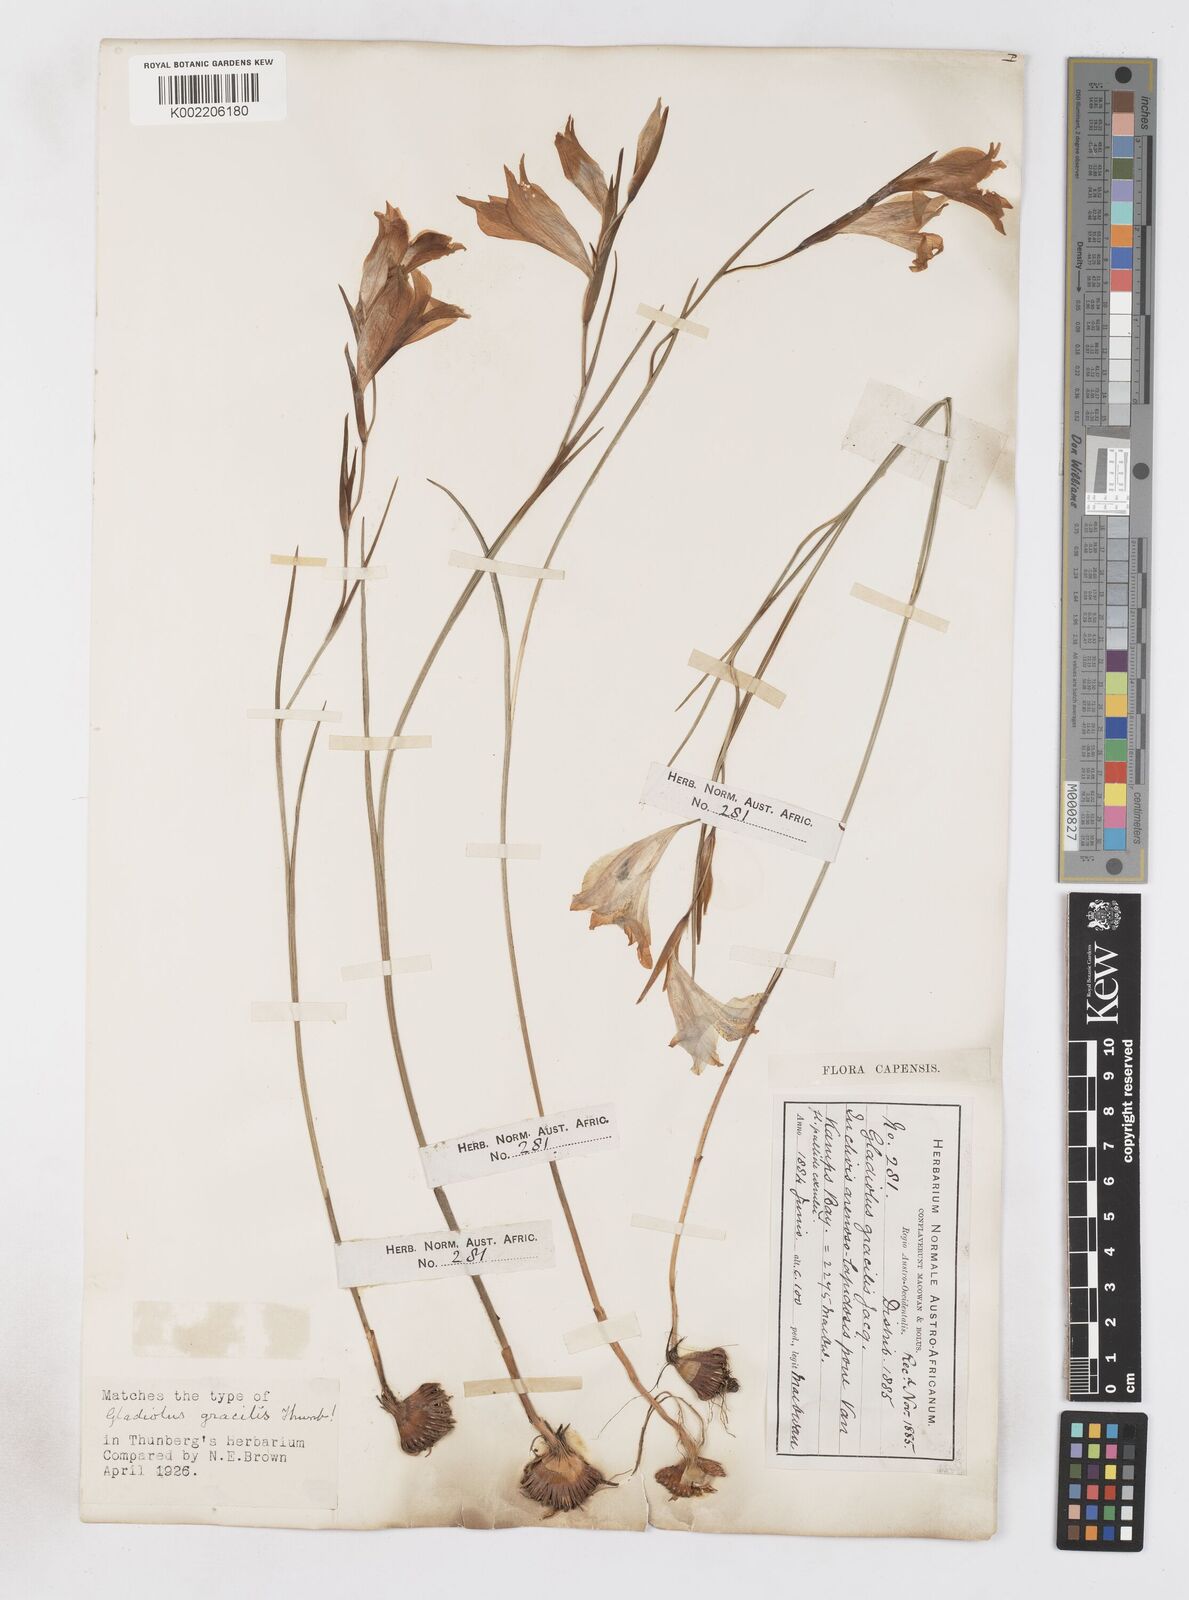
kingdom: Plantae
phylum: Tracheophyta
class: Liliopsida
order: Asparagales
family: Iridaceae
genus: Gladiolus
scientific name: Gladiolus gracilis
